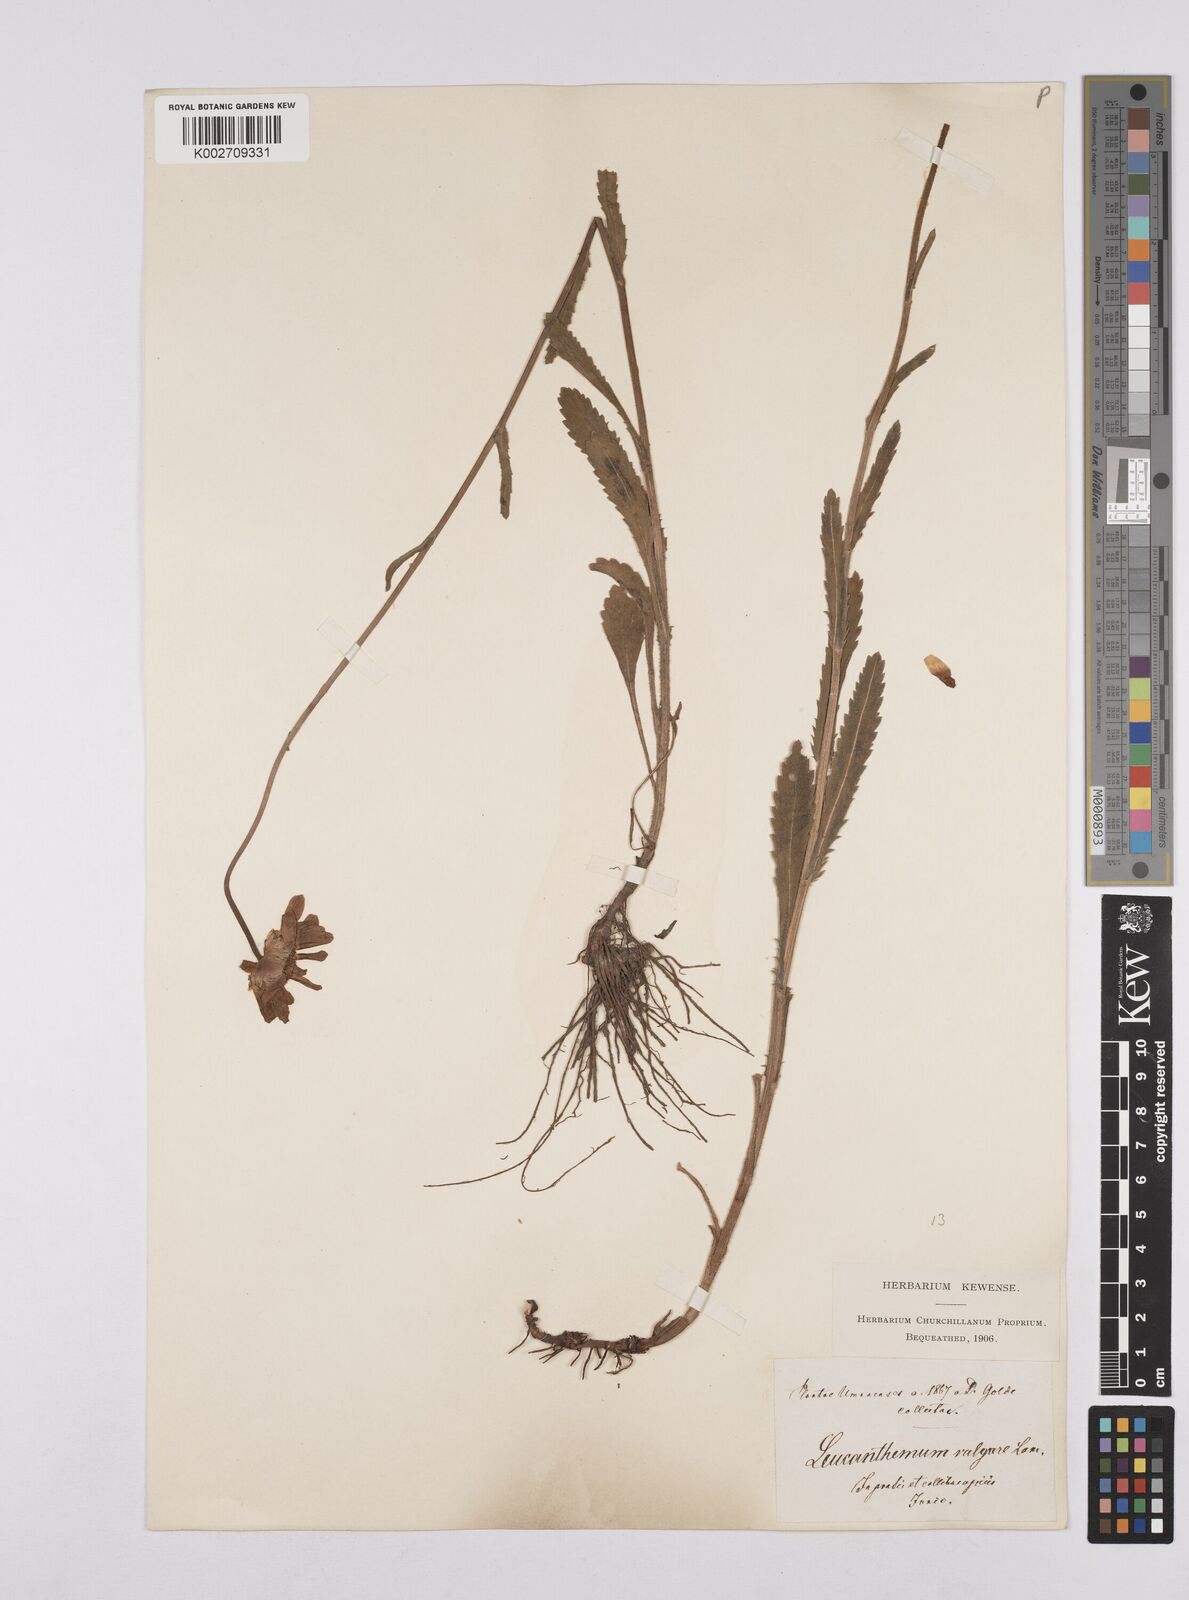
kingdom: Plantae
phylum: Tracheophyta
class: Magnoliopsida
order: Asterales
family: Asteraceae
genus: Leucanthemum
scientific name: Leucanthemum heterophyllum
